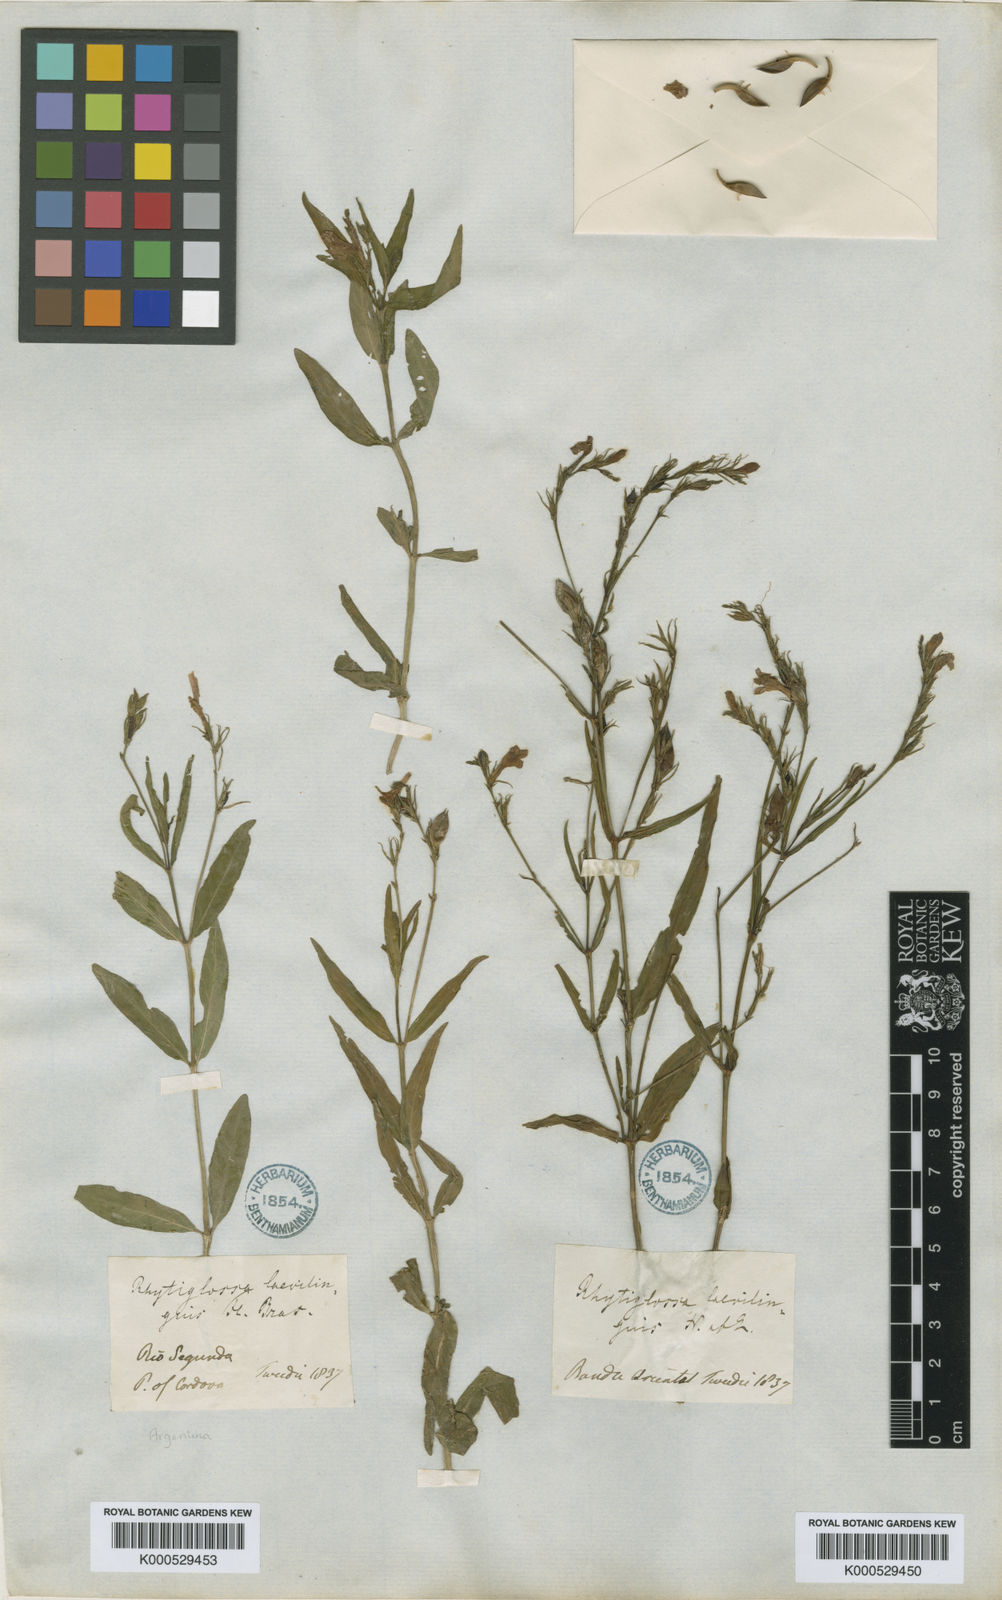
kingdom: Plantae
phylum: Tracheophyta
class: Magnoliopsida
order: Lamiales
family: Acanthaceae
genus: Dianthera
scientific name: Dianthera laevilinguis
